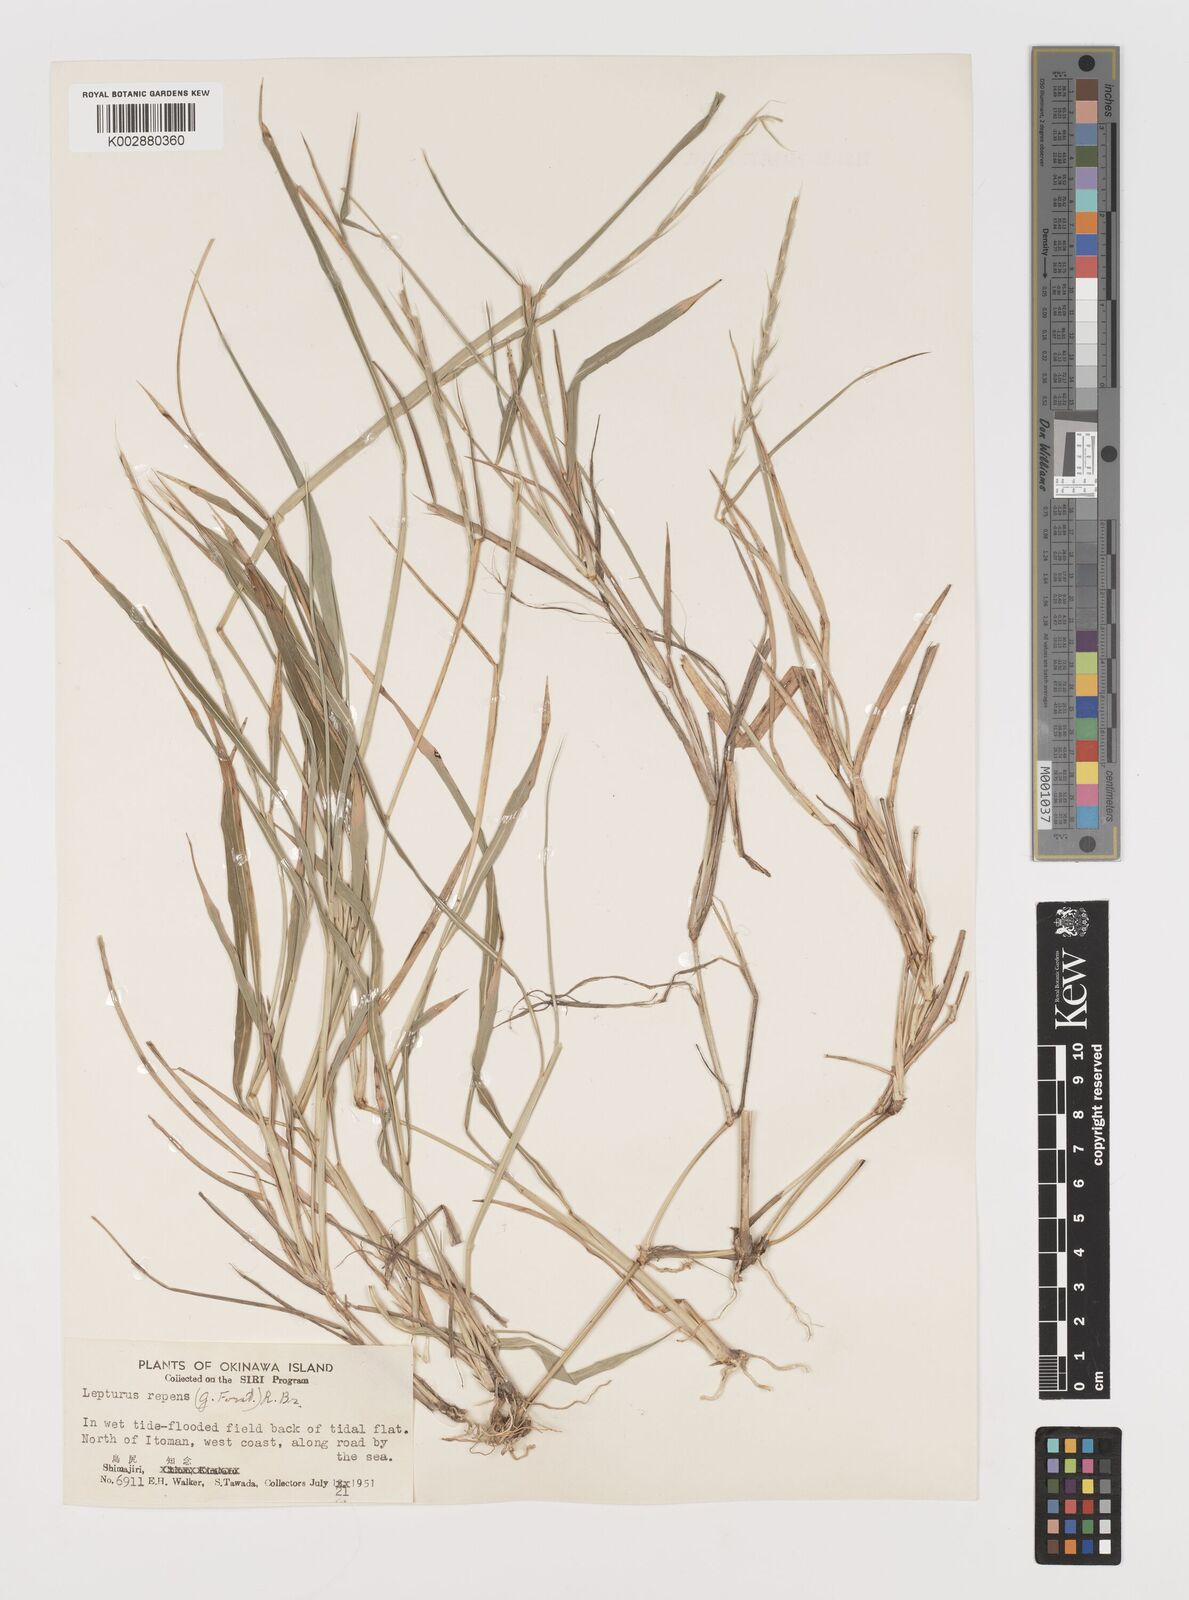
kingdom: Plantae
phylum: Tracheophyta
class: Liliopsida
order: Poales
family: Poaceae
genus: Lepturus
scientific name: Lepturus repens
